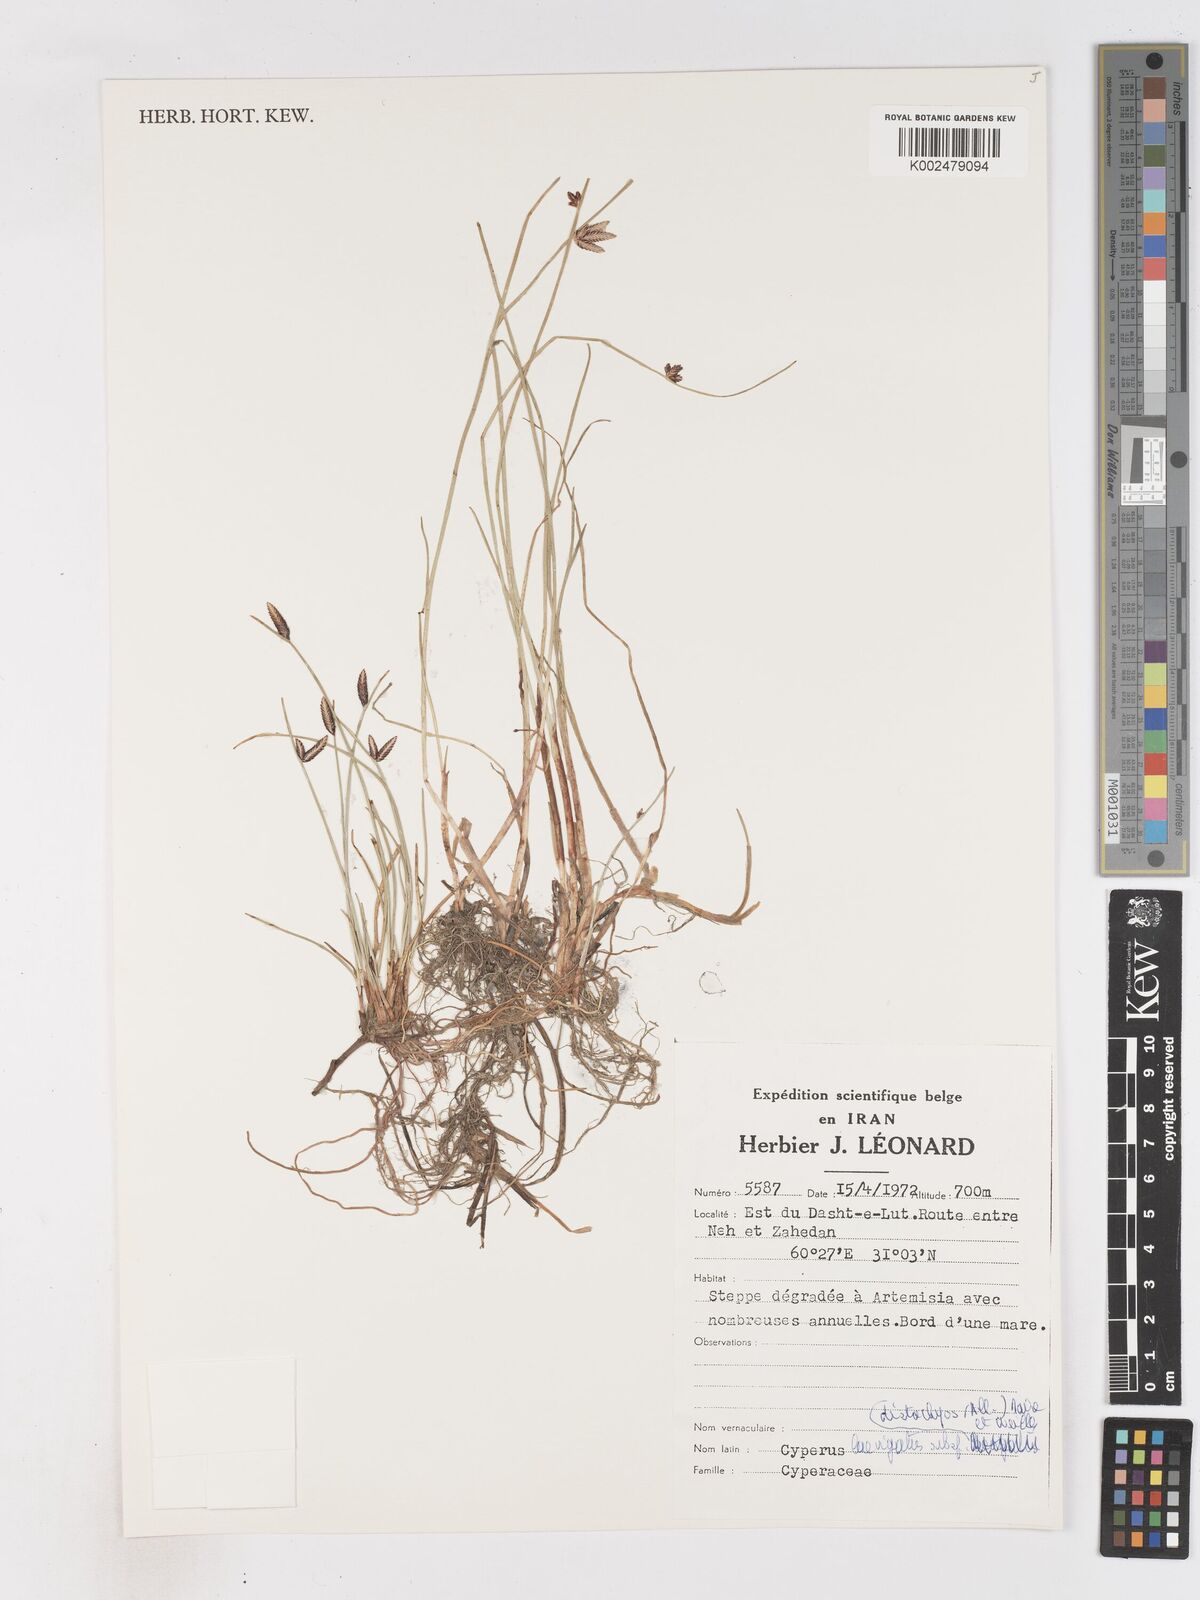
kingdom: Plantae
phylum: Tracheophyta
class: Liliopsida
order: Poales
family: Cyperaceae
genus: Cyperus
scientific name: Cyperus laevigatus
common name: Smooth flat sedge
